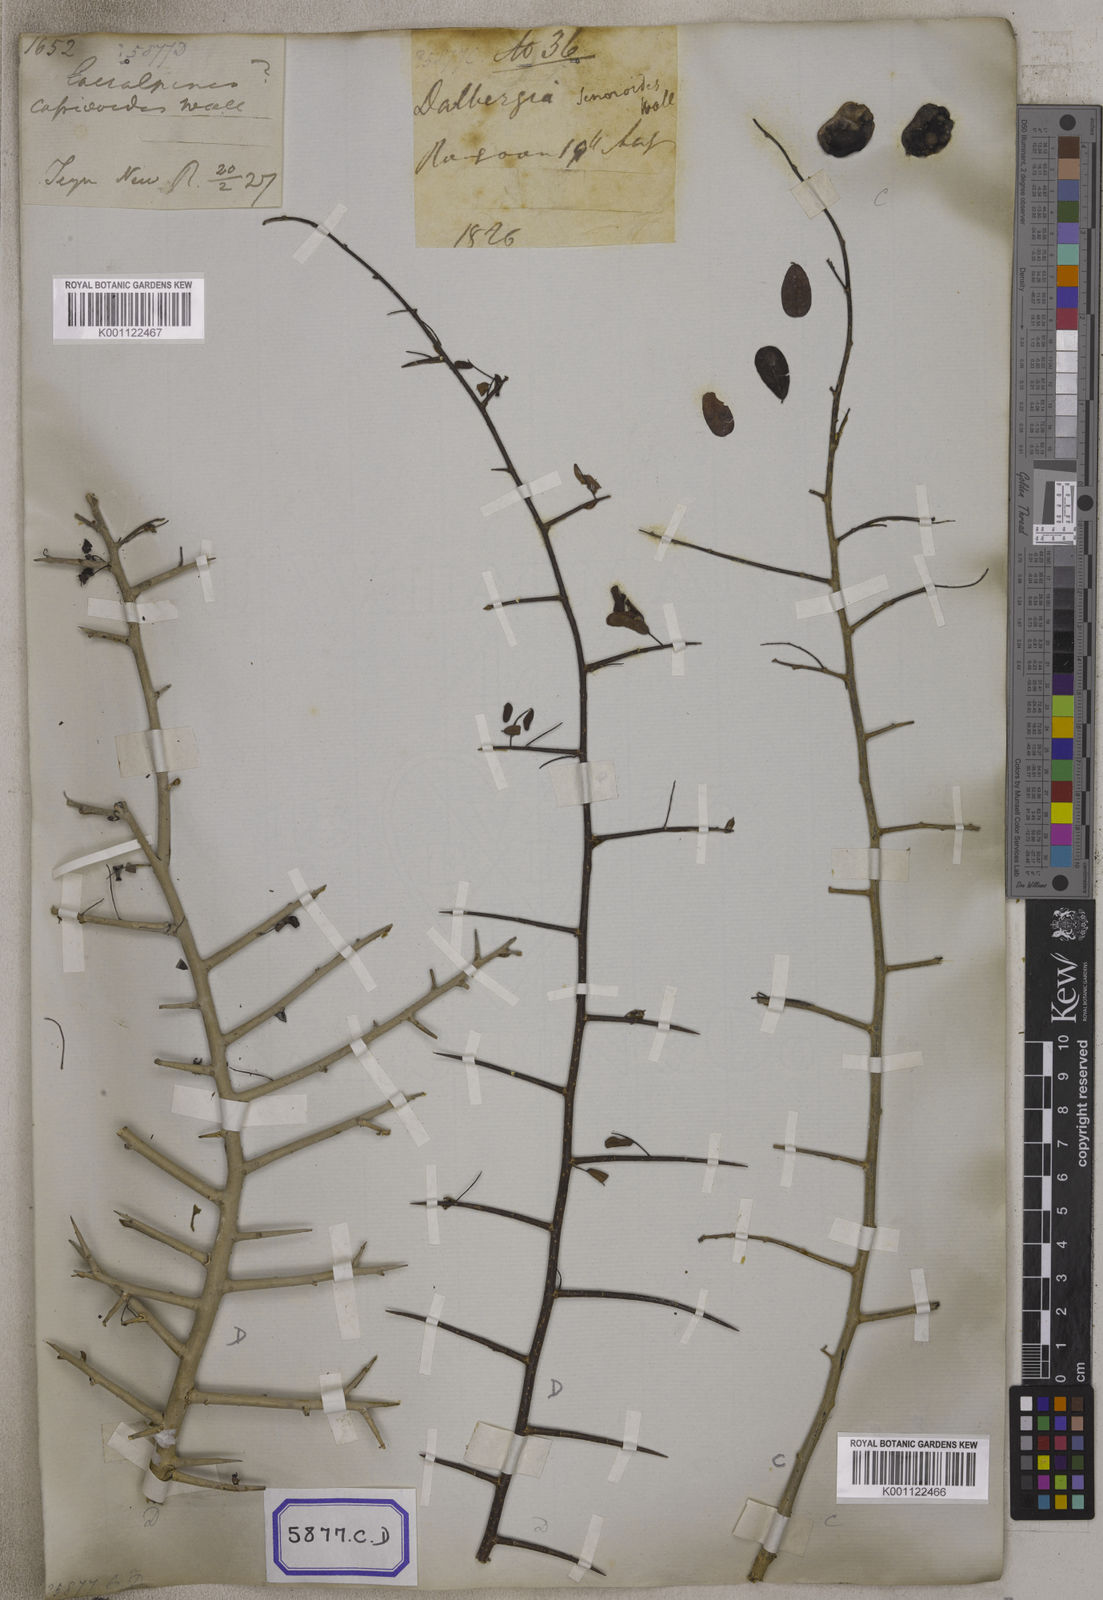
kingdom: Plantae
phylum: Tracheophyta
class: Magnoliopsida
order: Fabales
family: Fabaceae
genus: Dalbergia
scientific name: Dalbergia
